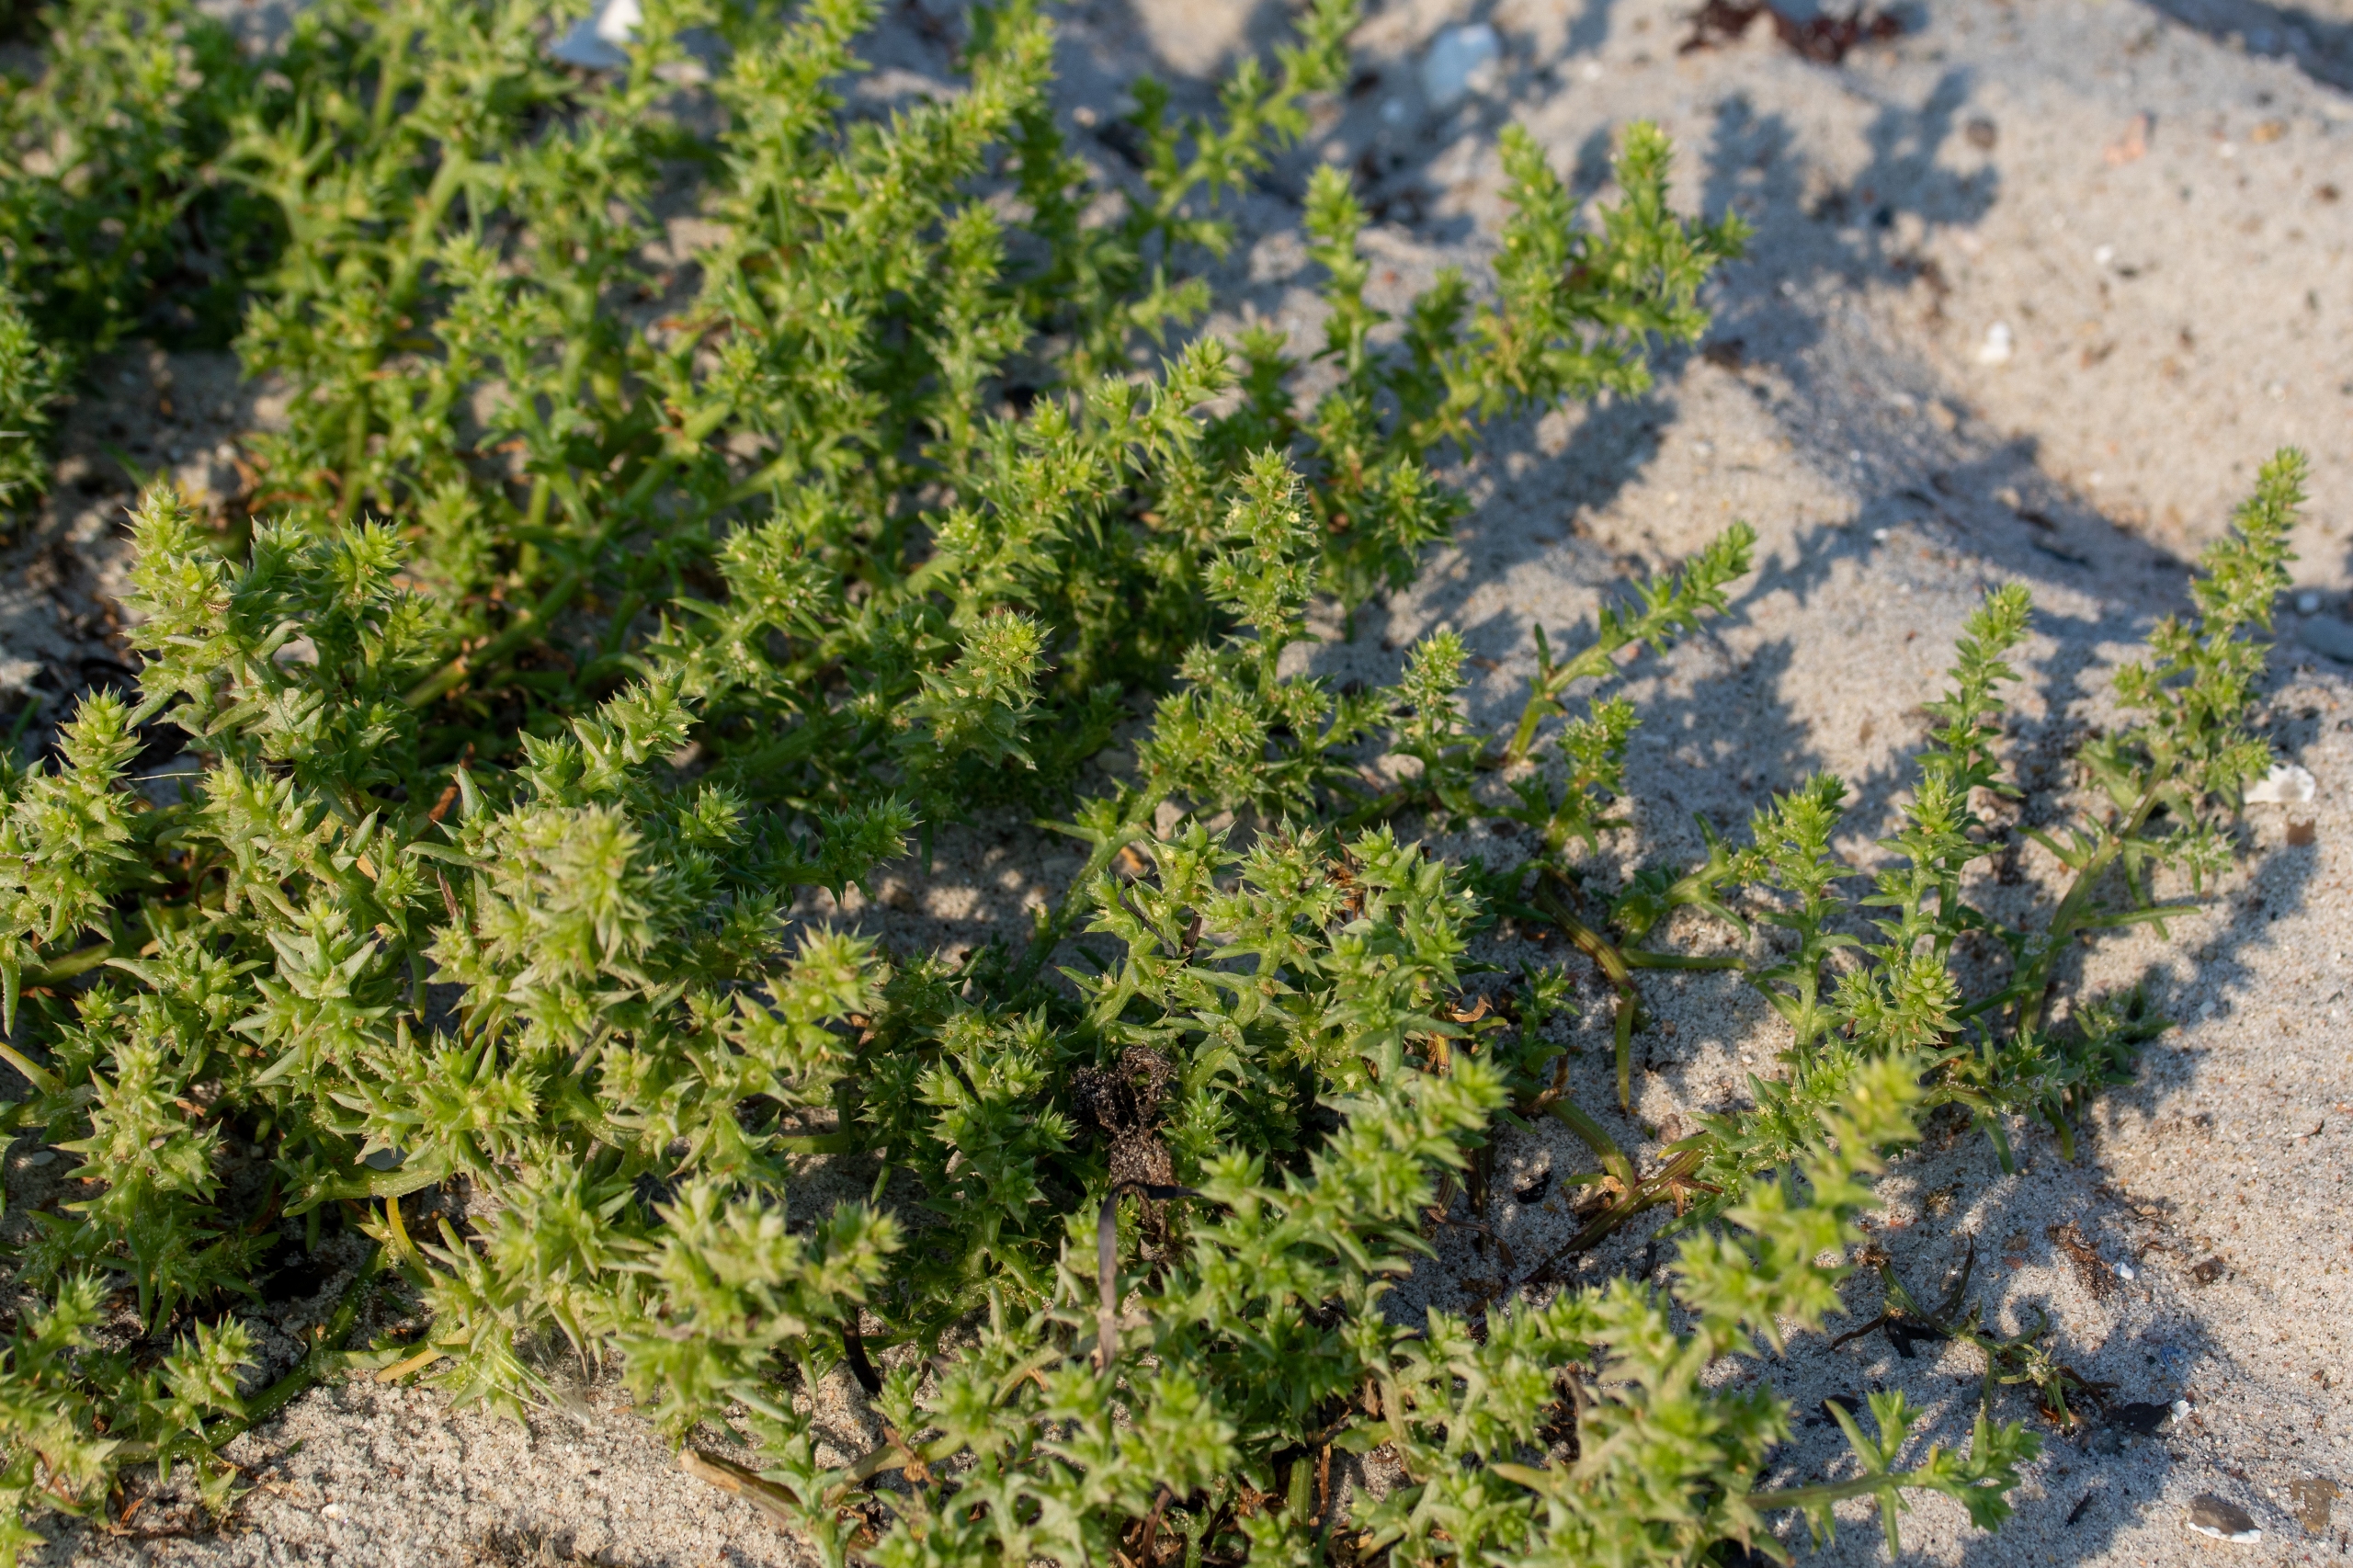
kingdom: Plantae
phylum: Tracheophyta
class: Magnoliopsida
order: Caryophyllales
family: Amaranthaceae
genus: Salsola
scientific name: Salsola kali
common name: Sodaurt
